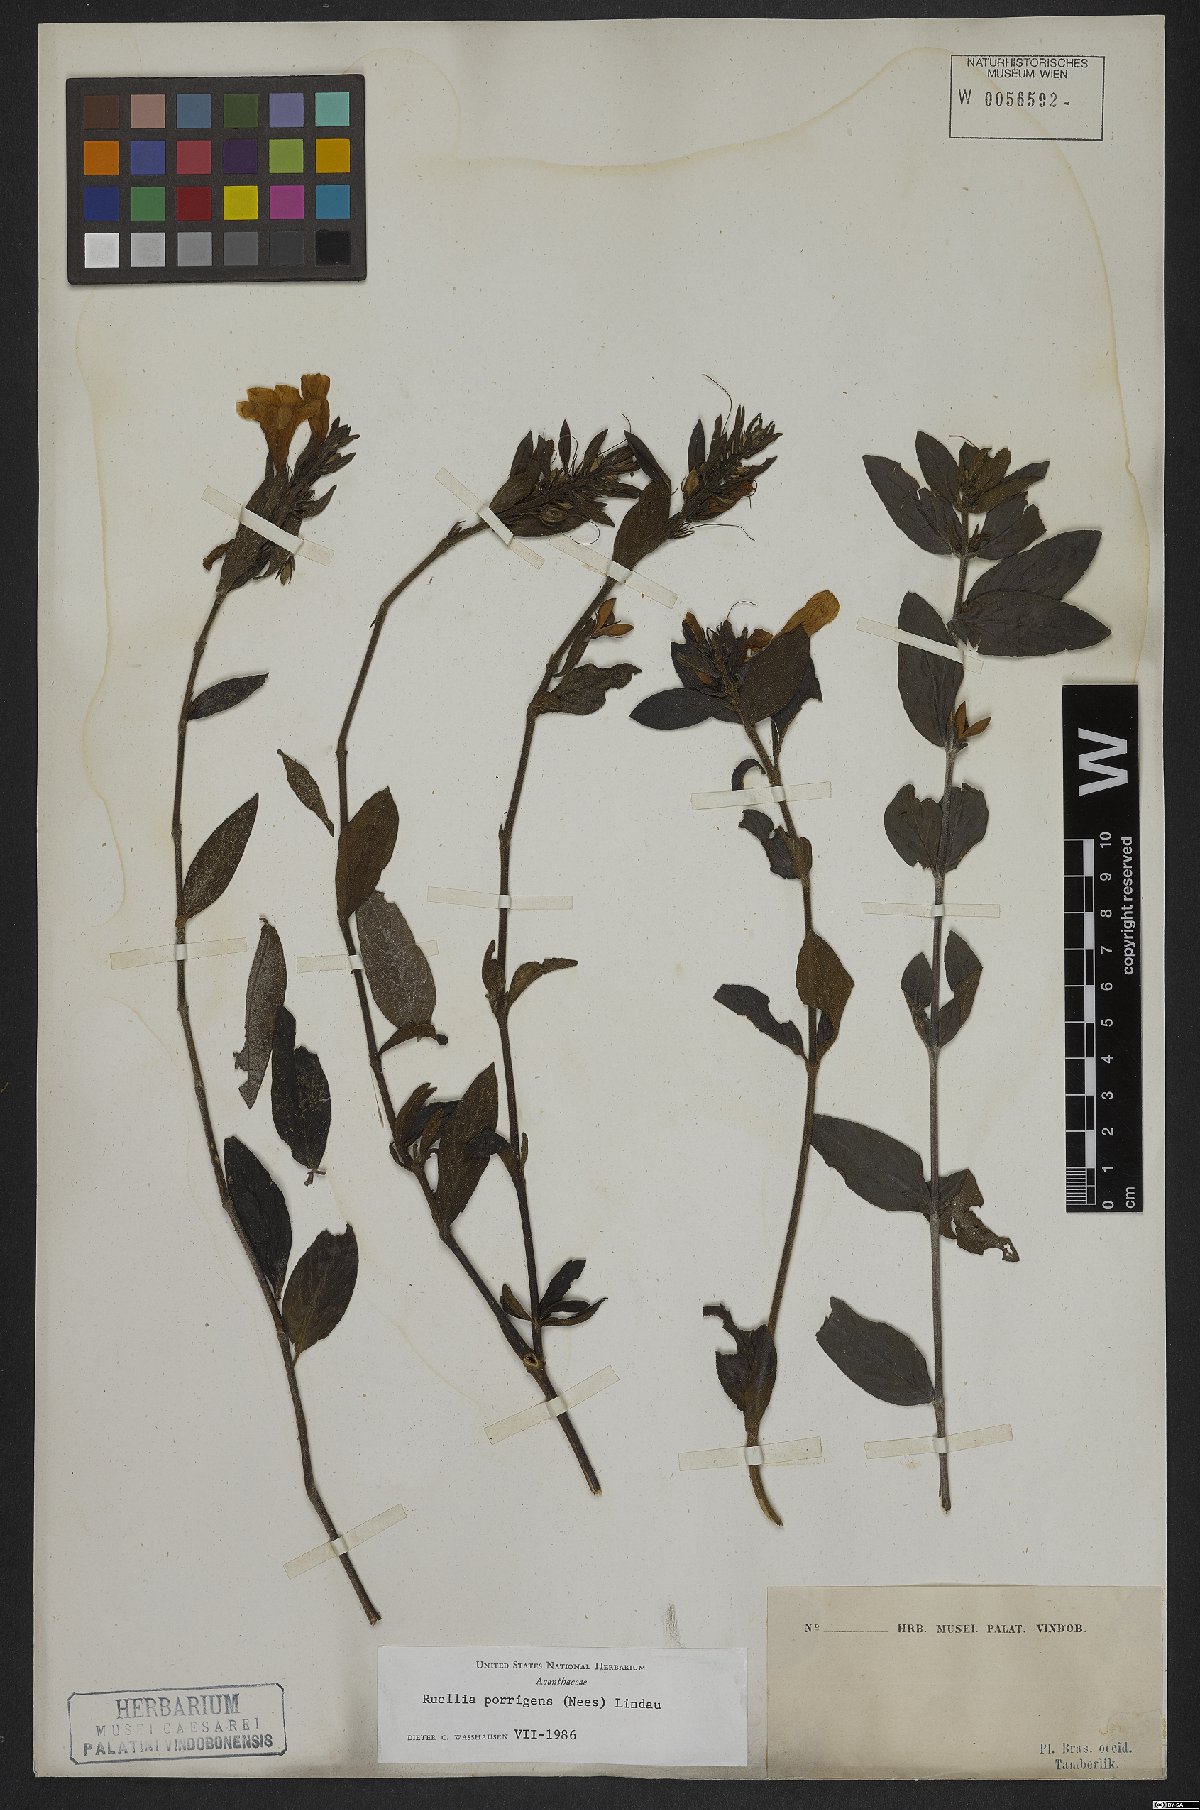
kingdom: Plantae
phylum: Tracheophyta
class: Magnoliopsida
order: Lamiales
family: Acanthaceae
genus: Ruellia
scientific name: Ruellia geminiflora
